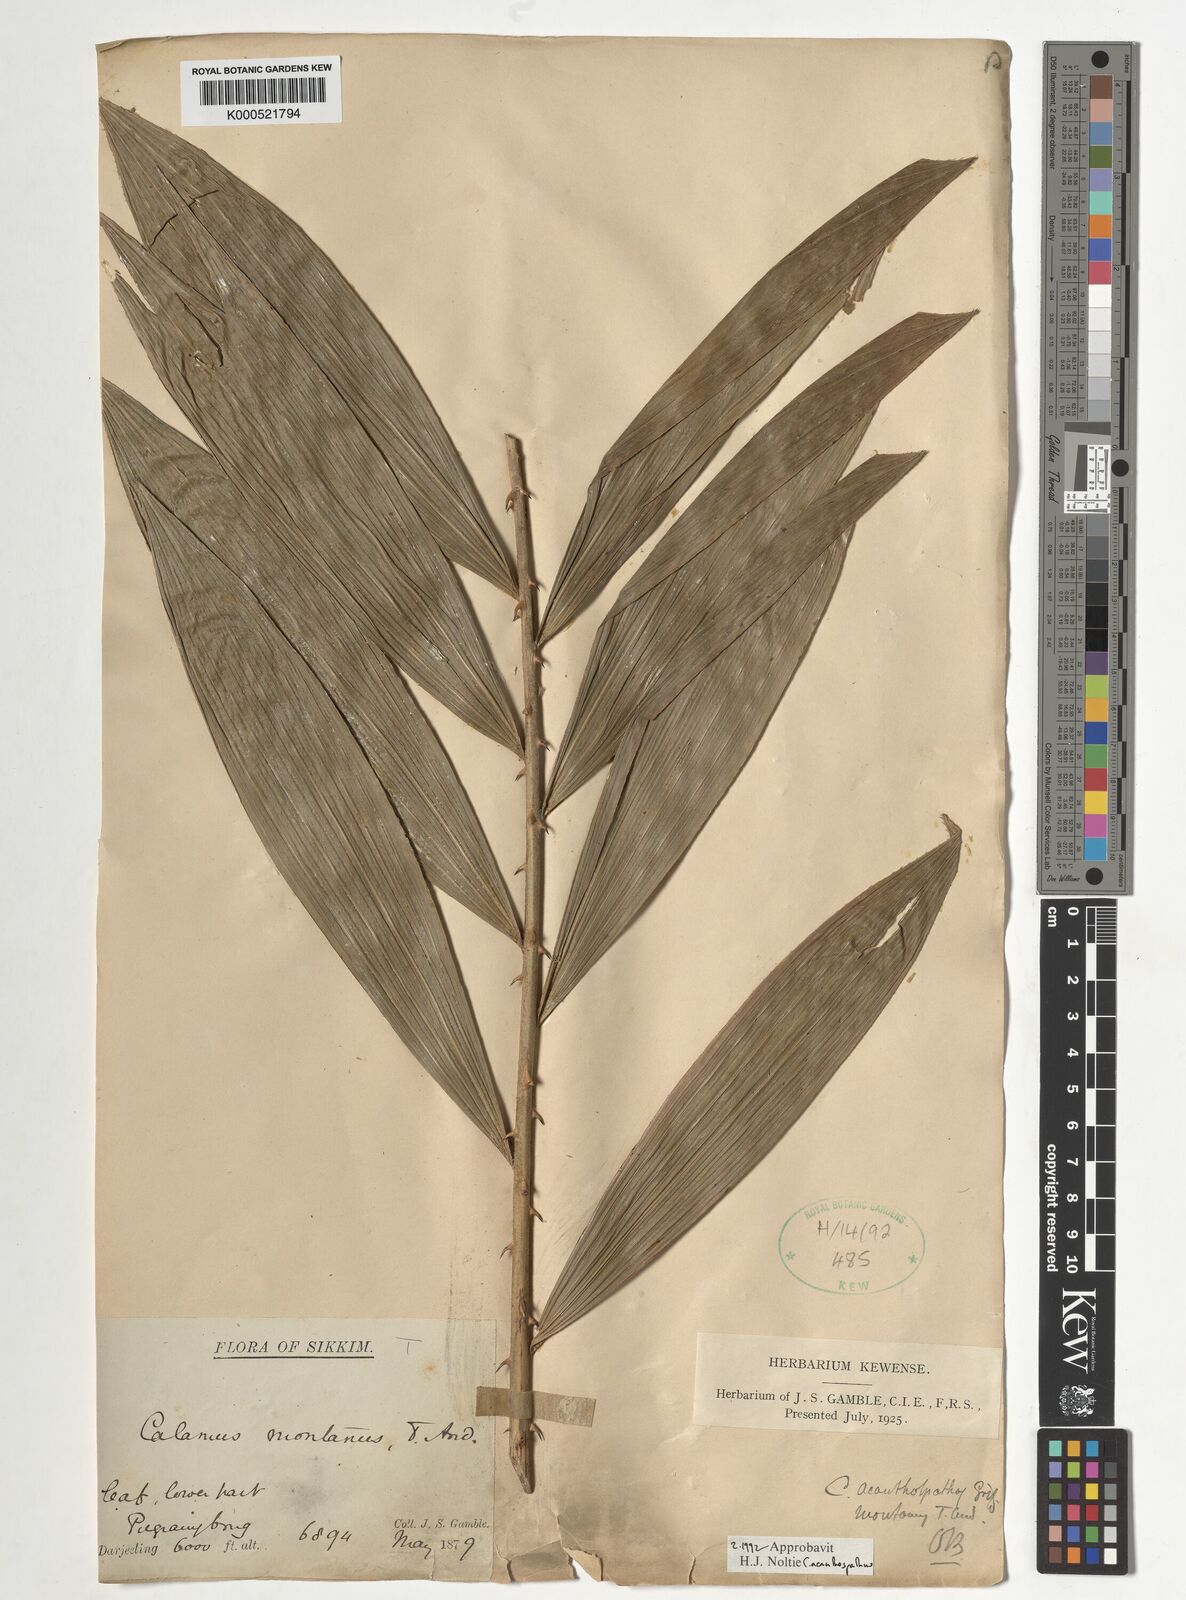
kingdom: Plantae
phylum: Tracheophyta
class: Liliopsida
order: Arecales
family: Arecaceae
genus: Calamus
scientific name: Calamus acanthospathus
